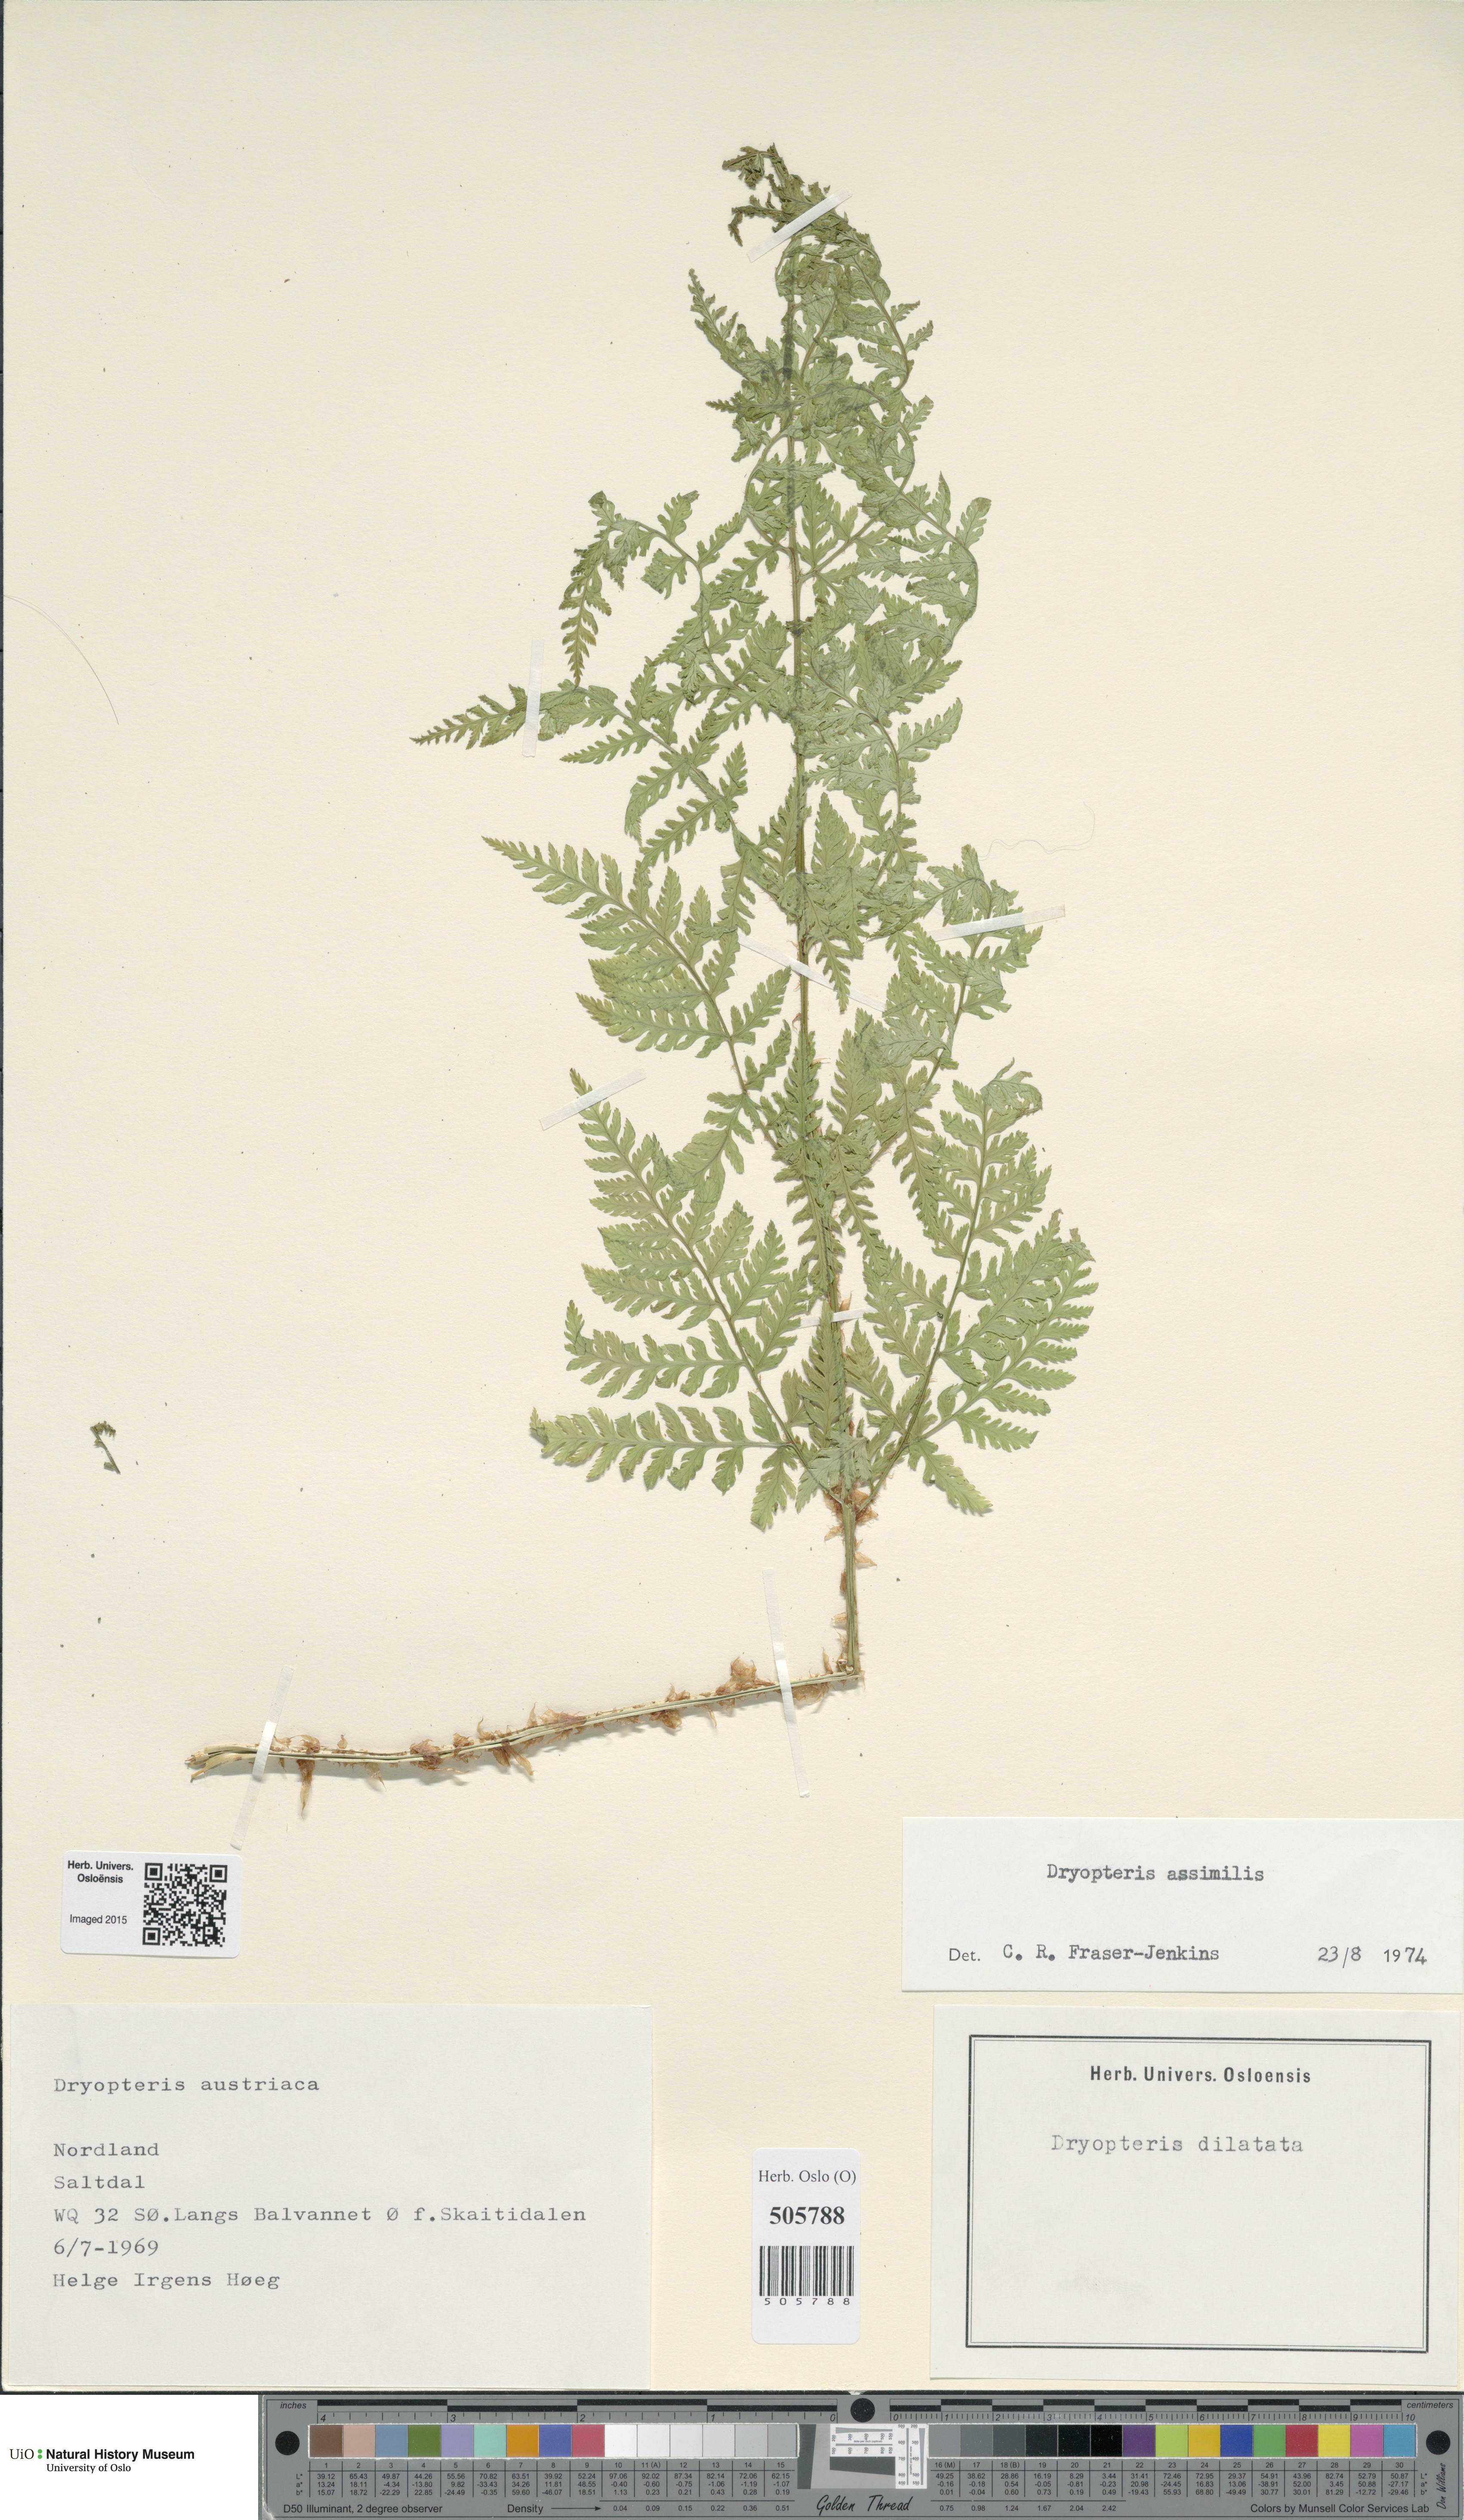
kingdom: Plantae
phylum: Tracheophyta
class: Polypodiopsida
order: Polypodiales
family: Dryopteridaceae
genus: Dryopteris
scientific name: Dryopteris expansa
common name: Northern buckler fern
